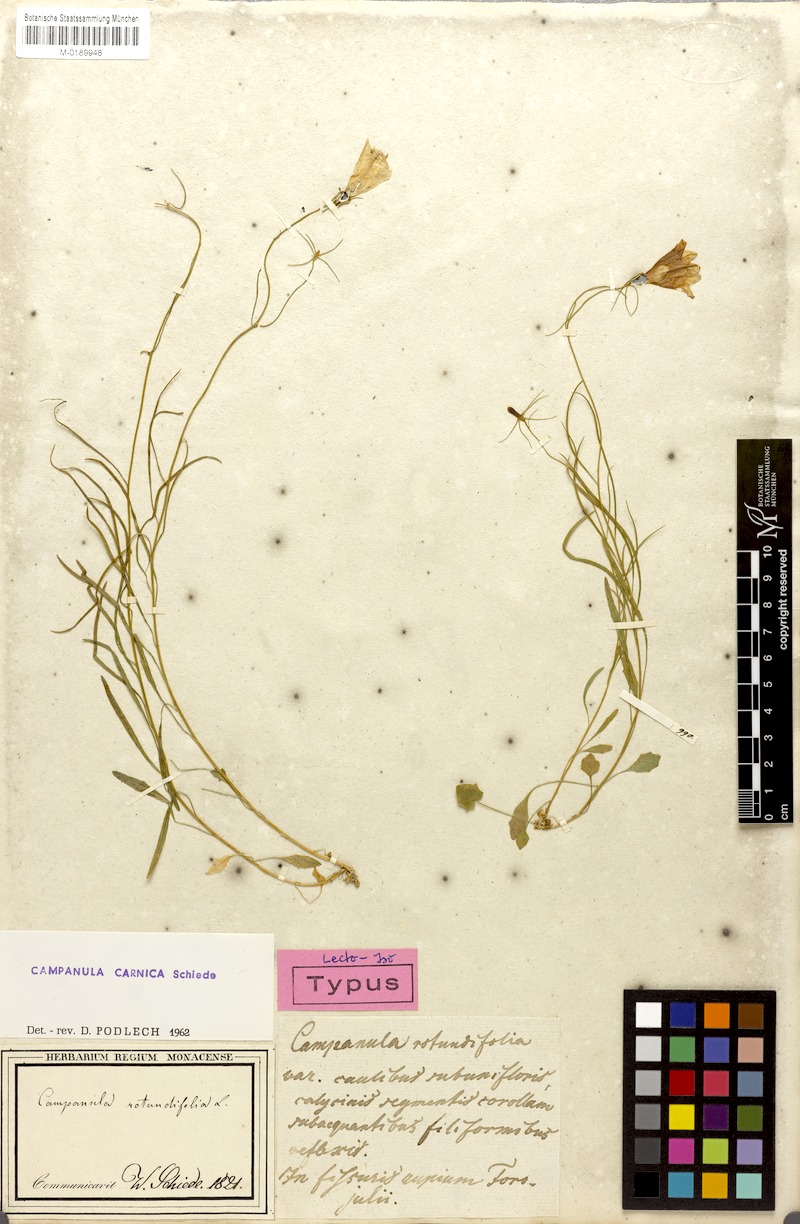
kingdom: Plantae
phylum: Tracheophyta
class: Magnoliopsida
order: Asterales
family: Campanulaceae
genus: Campanula
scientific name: Campanula carnica
